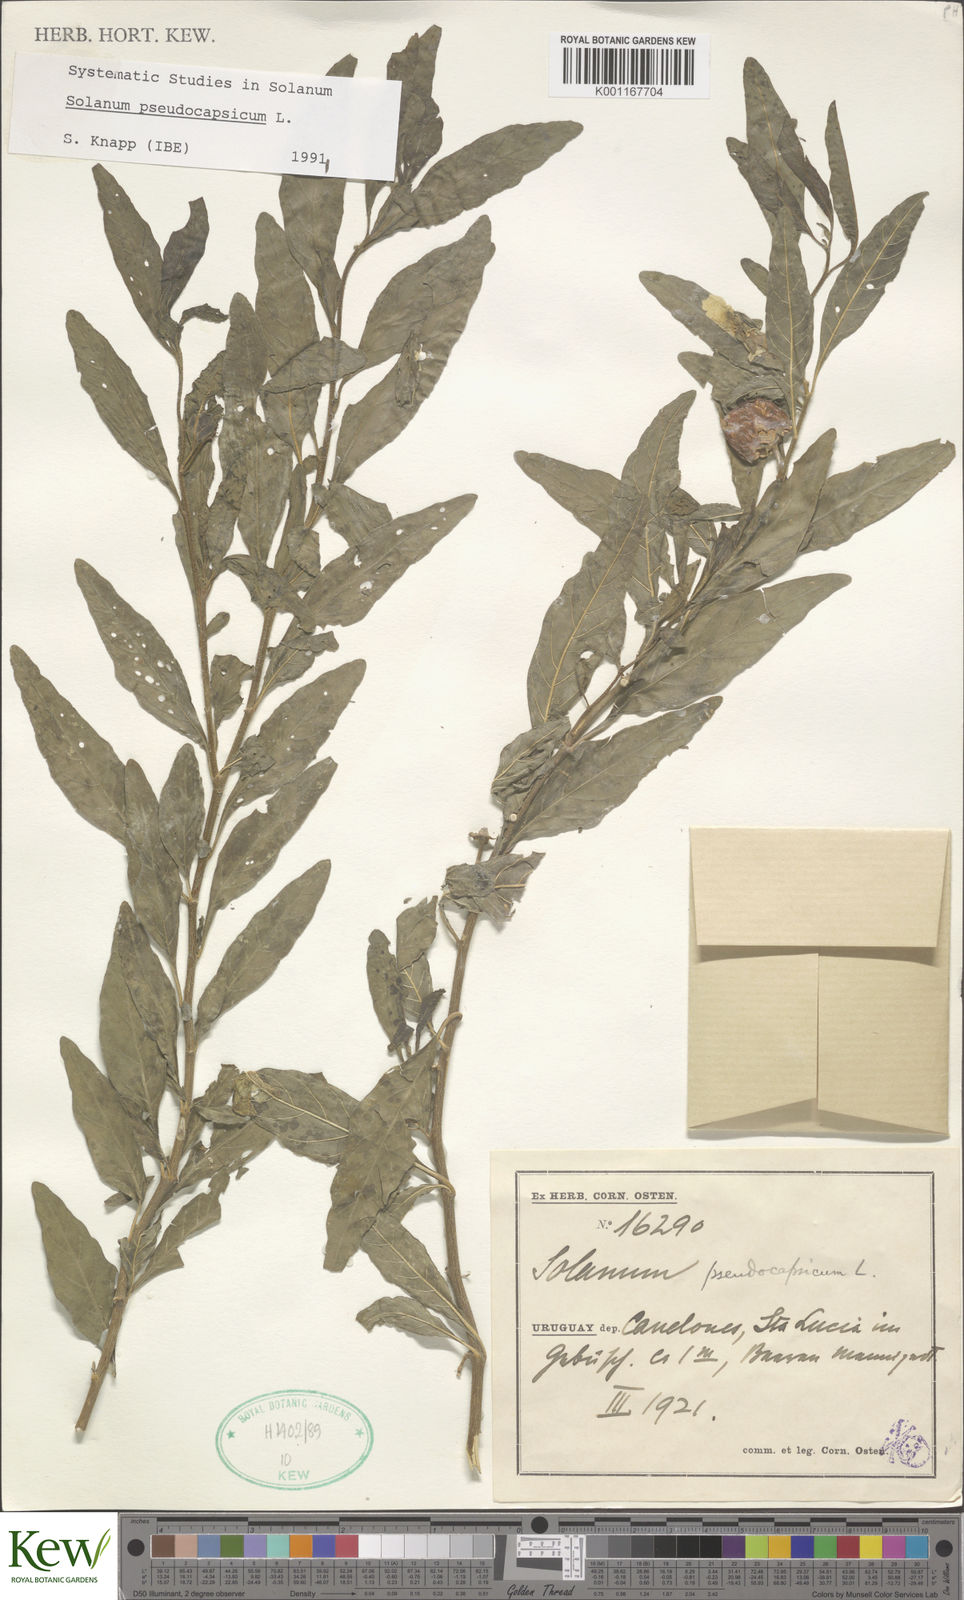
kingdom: Plantae
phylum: Tracheophyta
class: Magnoliopsida
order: Solanales
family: Solanaceae
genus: Solanum
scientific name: Solanum pseudocapsicum
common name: Jerusalem cherry
